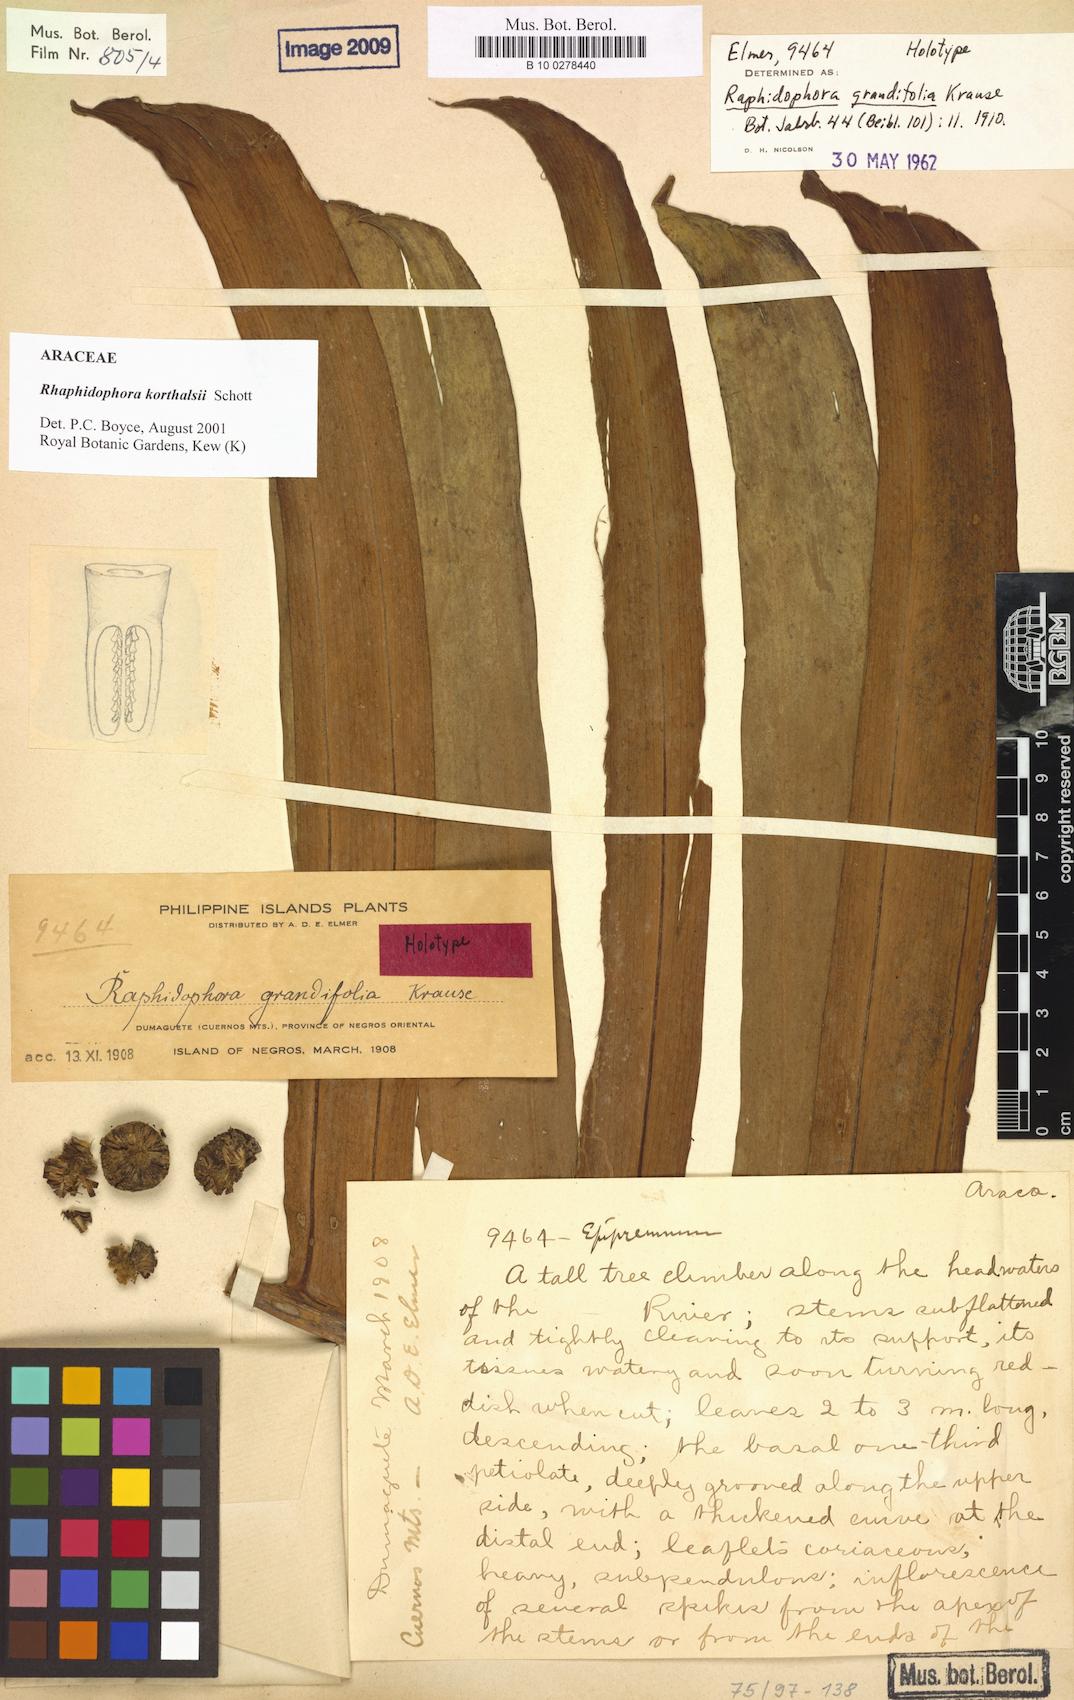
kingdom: Plantae
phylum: Tracheophyta
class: Liliopsida
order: Alismatales
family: Araceae
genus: Rhaphidophora
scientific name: Rhaphidophora korthalsii
